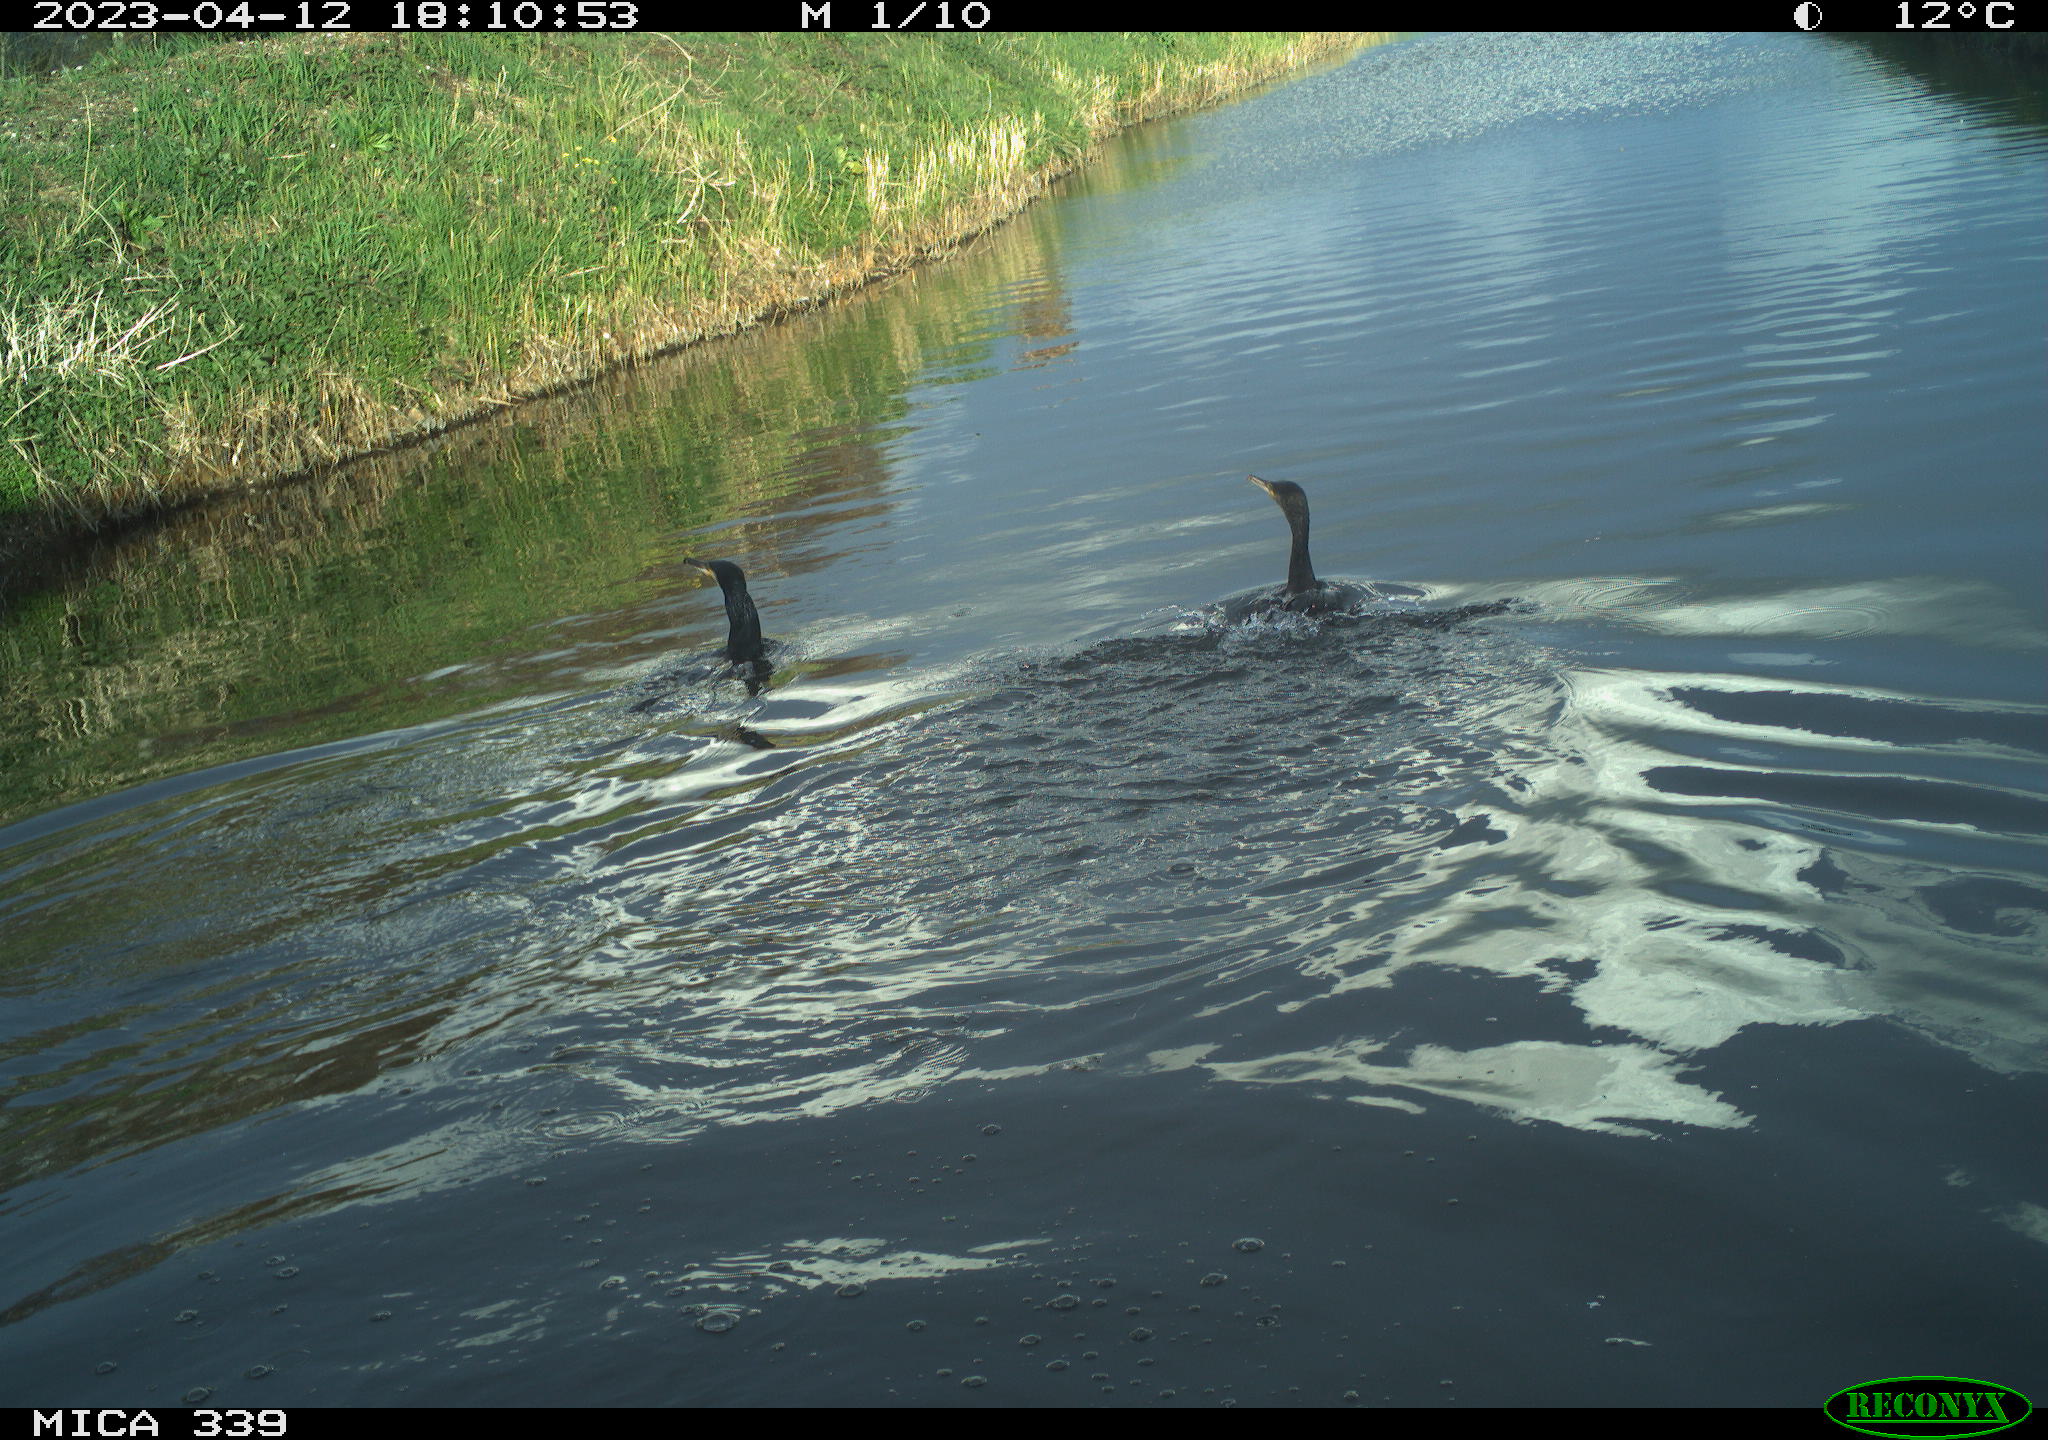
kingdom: Animalia
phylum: Chordata
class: Aves
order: Anseriformes
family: Anatidae
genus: Anas
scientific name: Anas
